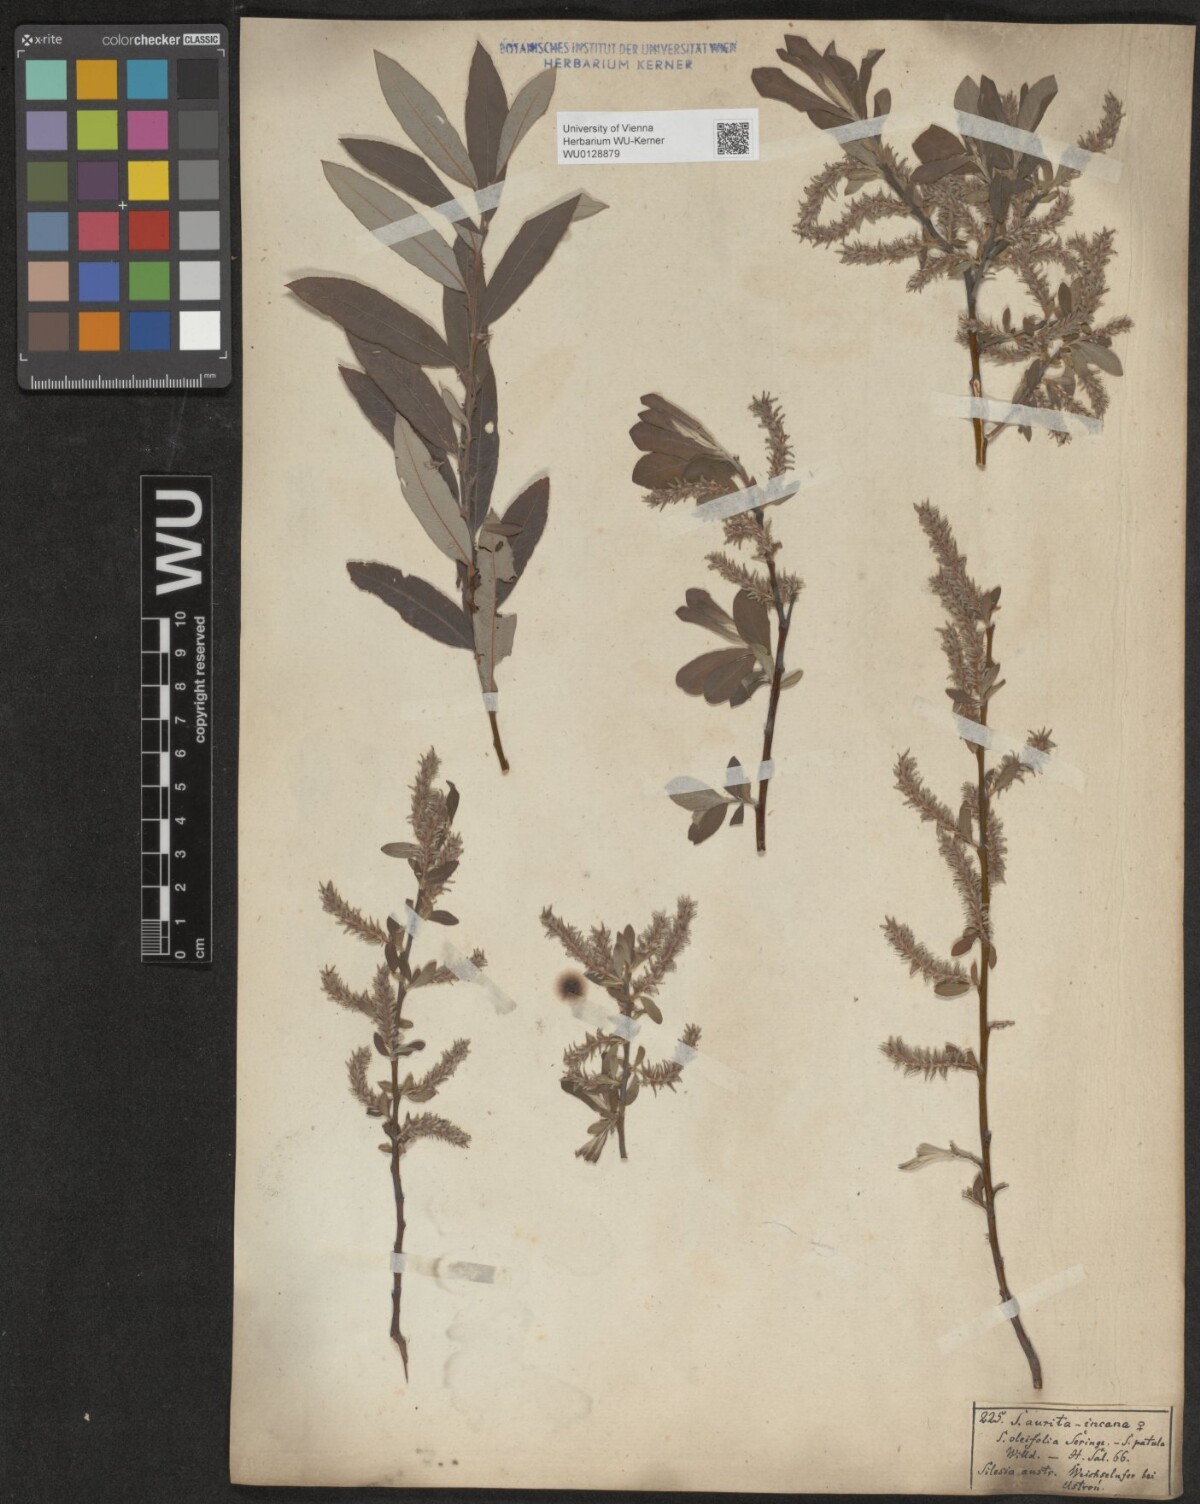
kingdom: Plantae
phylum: Tracheophyta
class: Magnoliopsida
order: Malpighiales
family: Salicaceae
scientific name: Salicaceae
